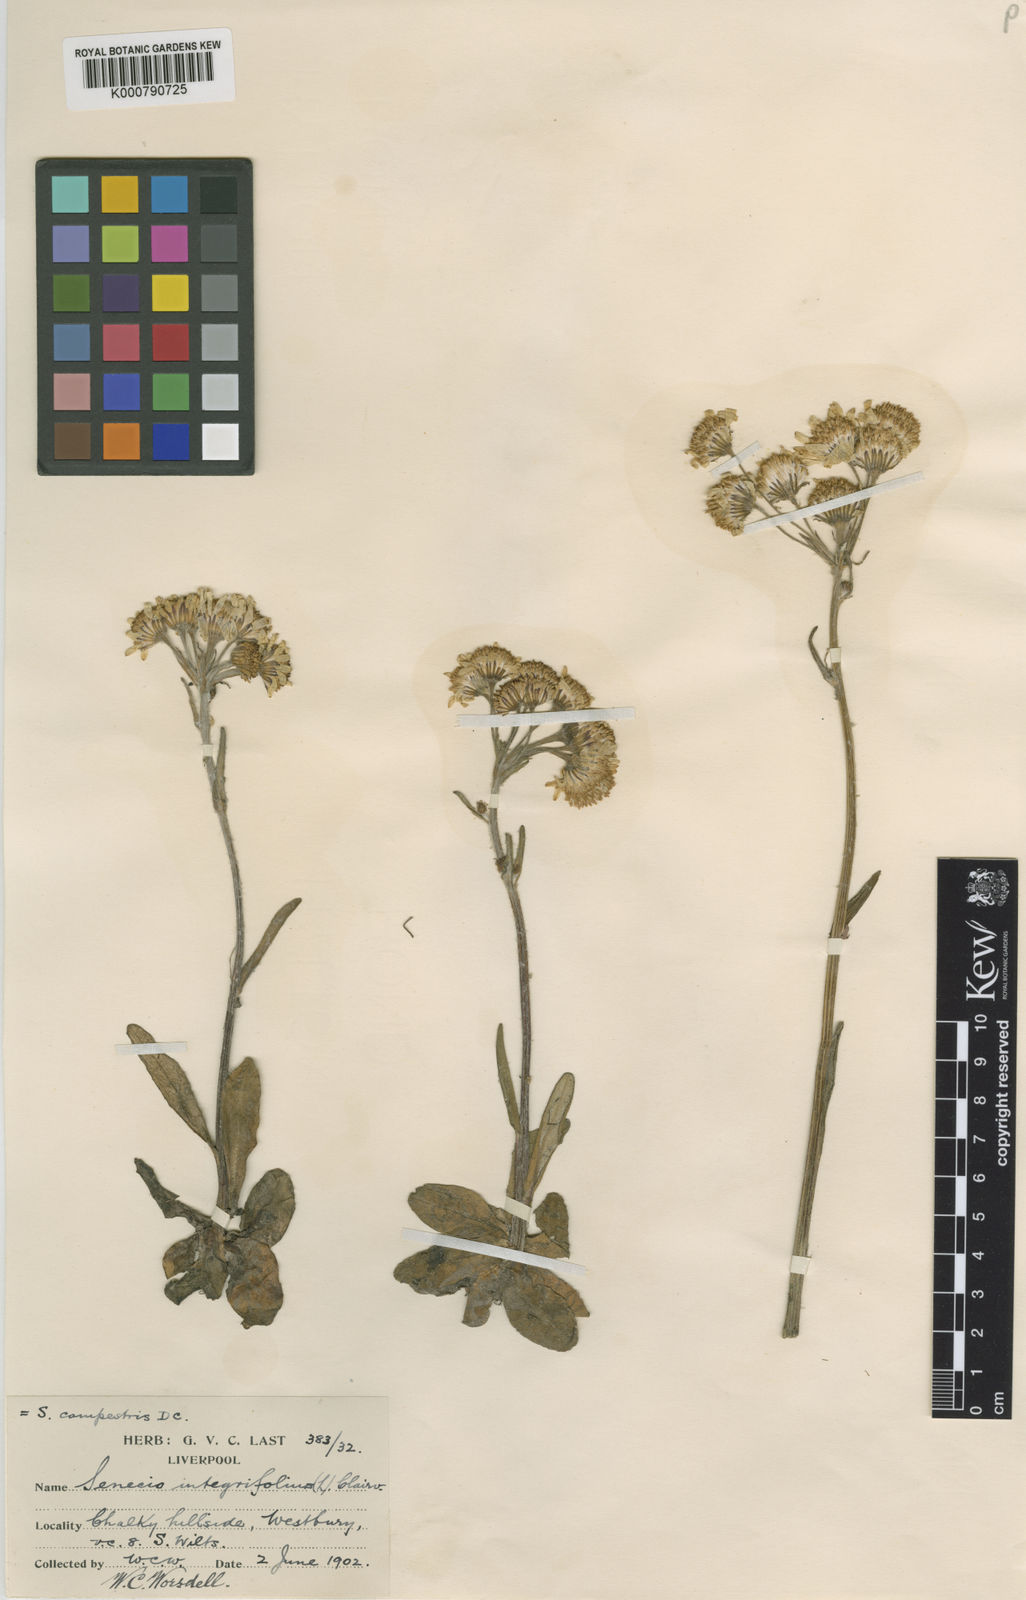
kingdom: Plantae
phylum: Tracheophyta
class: Magnoliopsida
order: Asterales
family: Asteraceae
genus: Tephroseris
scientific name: Tephroseris integrifolia
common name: Field fleawort
